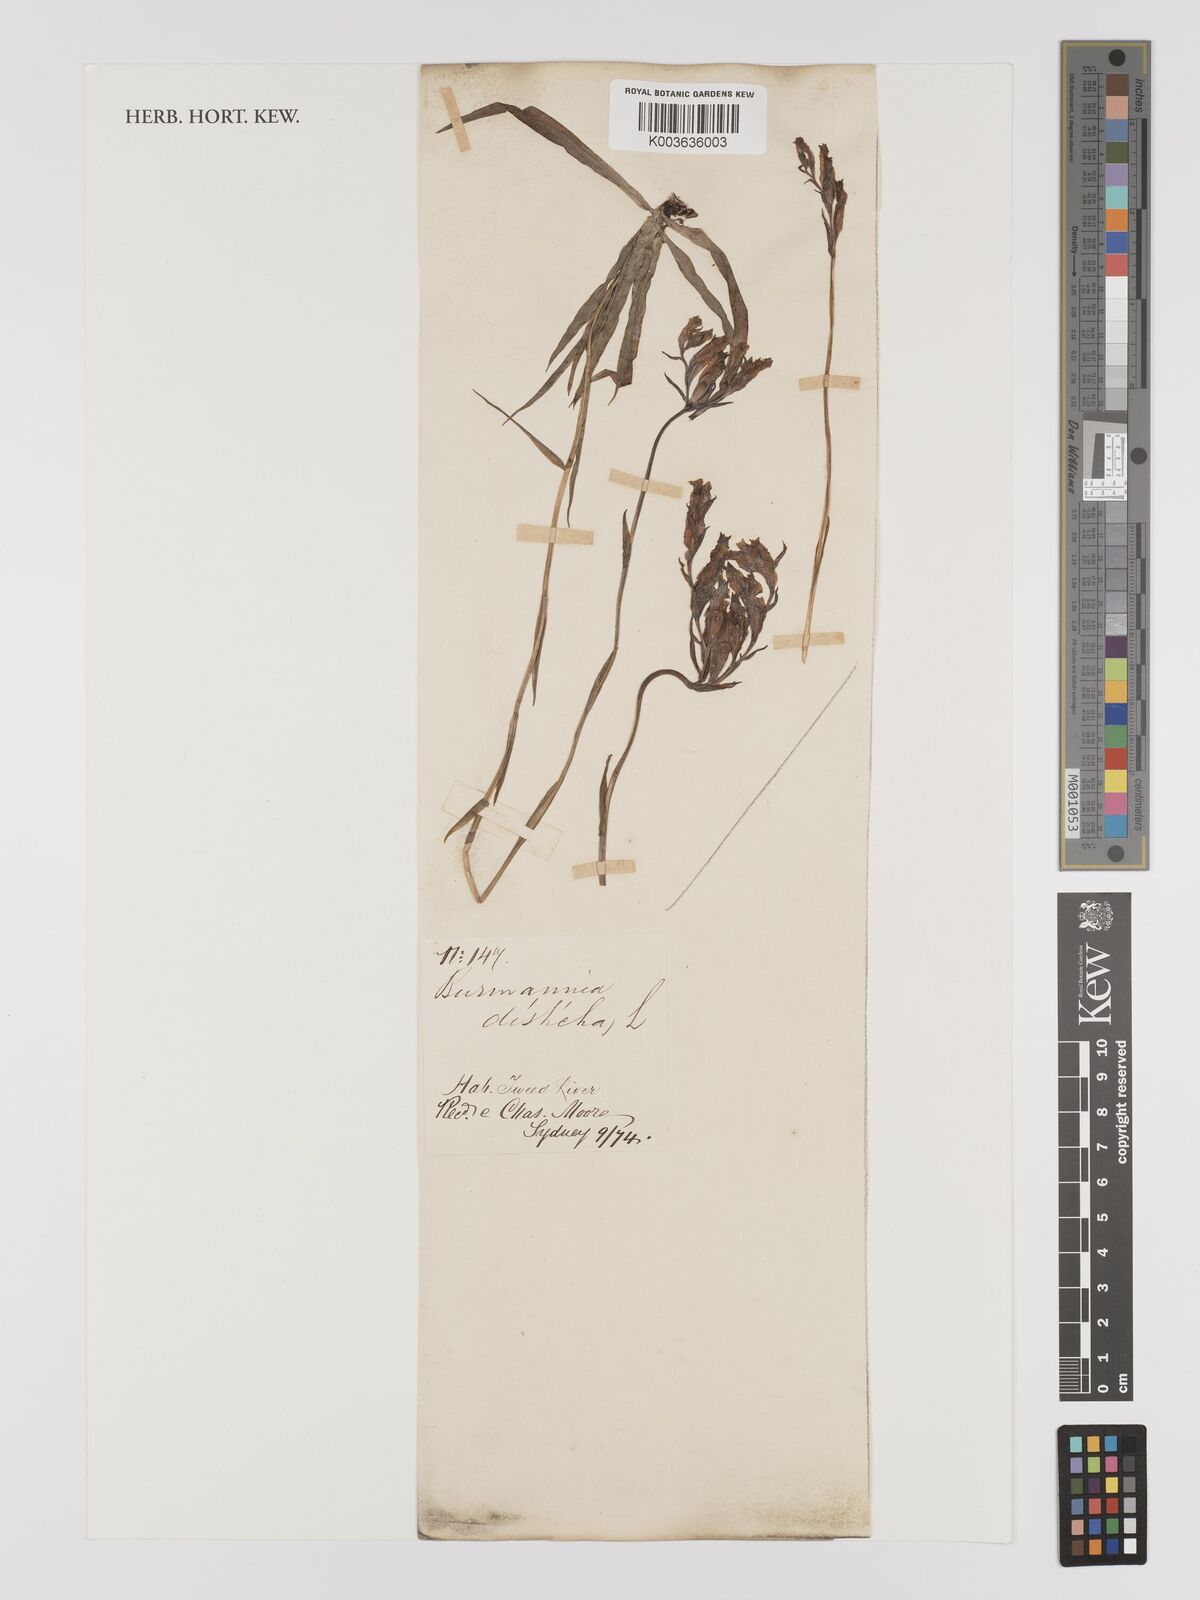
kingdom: Plantae
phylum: Tracheophyta
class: Liliopsida
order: Dioscoreales
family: Burmanniaceae
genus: Burmannia
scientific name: Burmannia disticha
